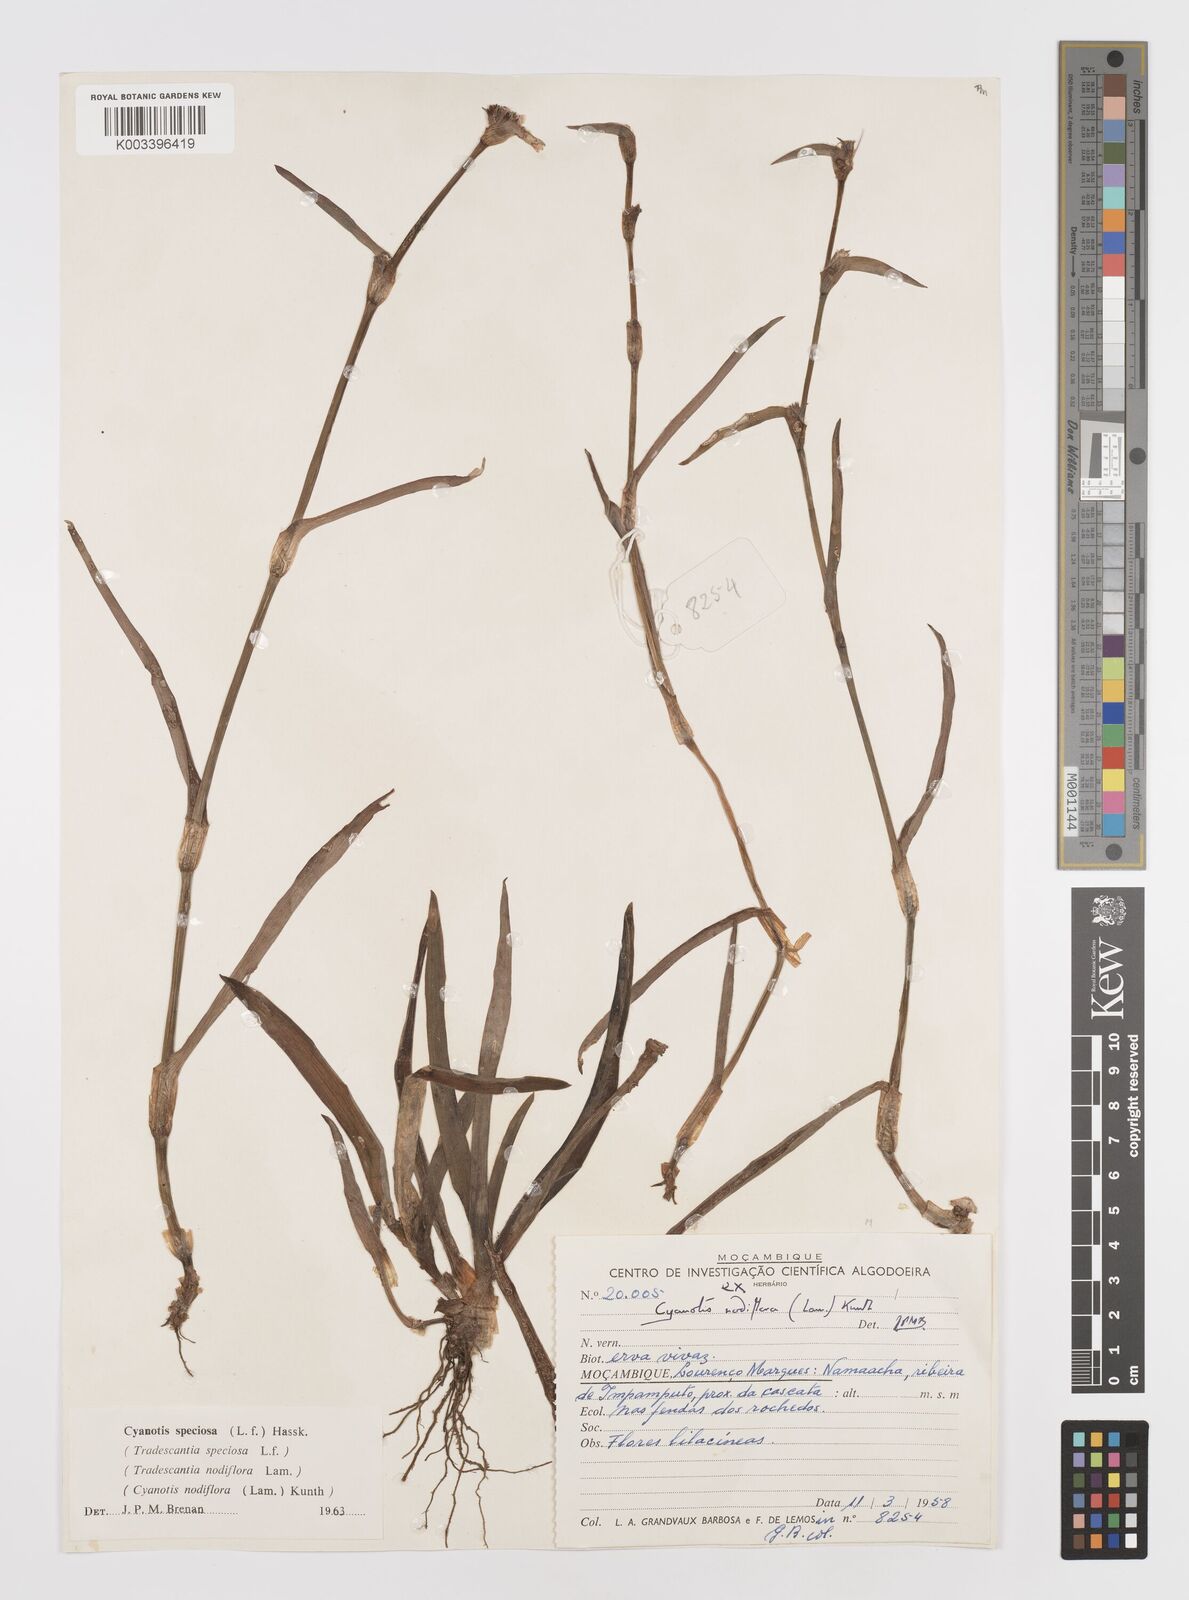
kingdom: Plantae
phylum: Tracheophyta
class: Liliopsida
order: Commelinales
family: Commelinaceae
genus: Cyanotis
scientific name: Cyanotis speciosa
